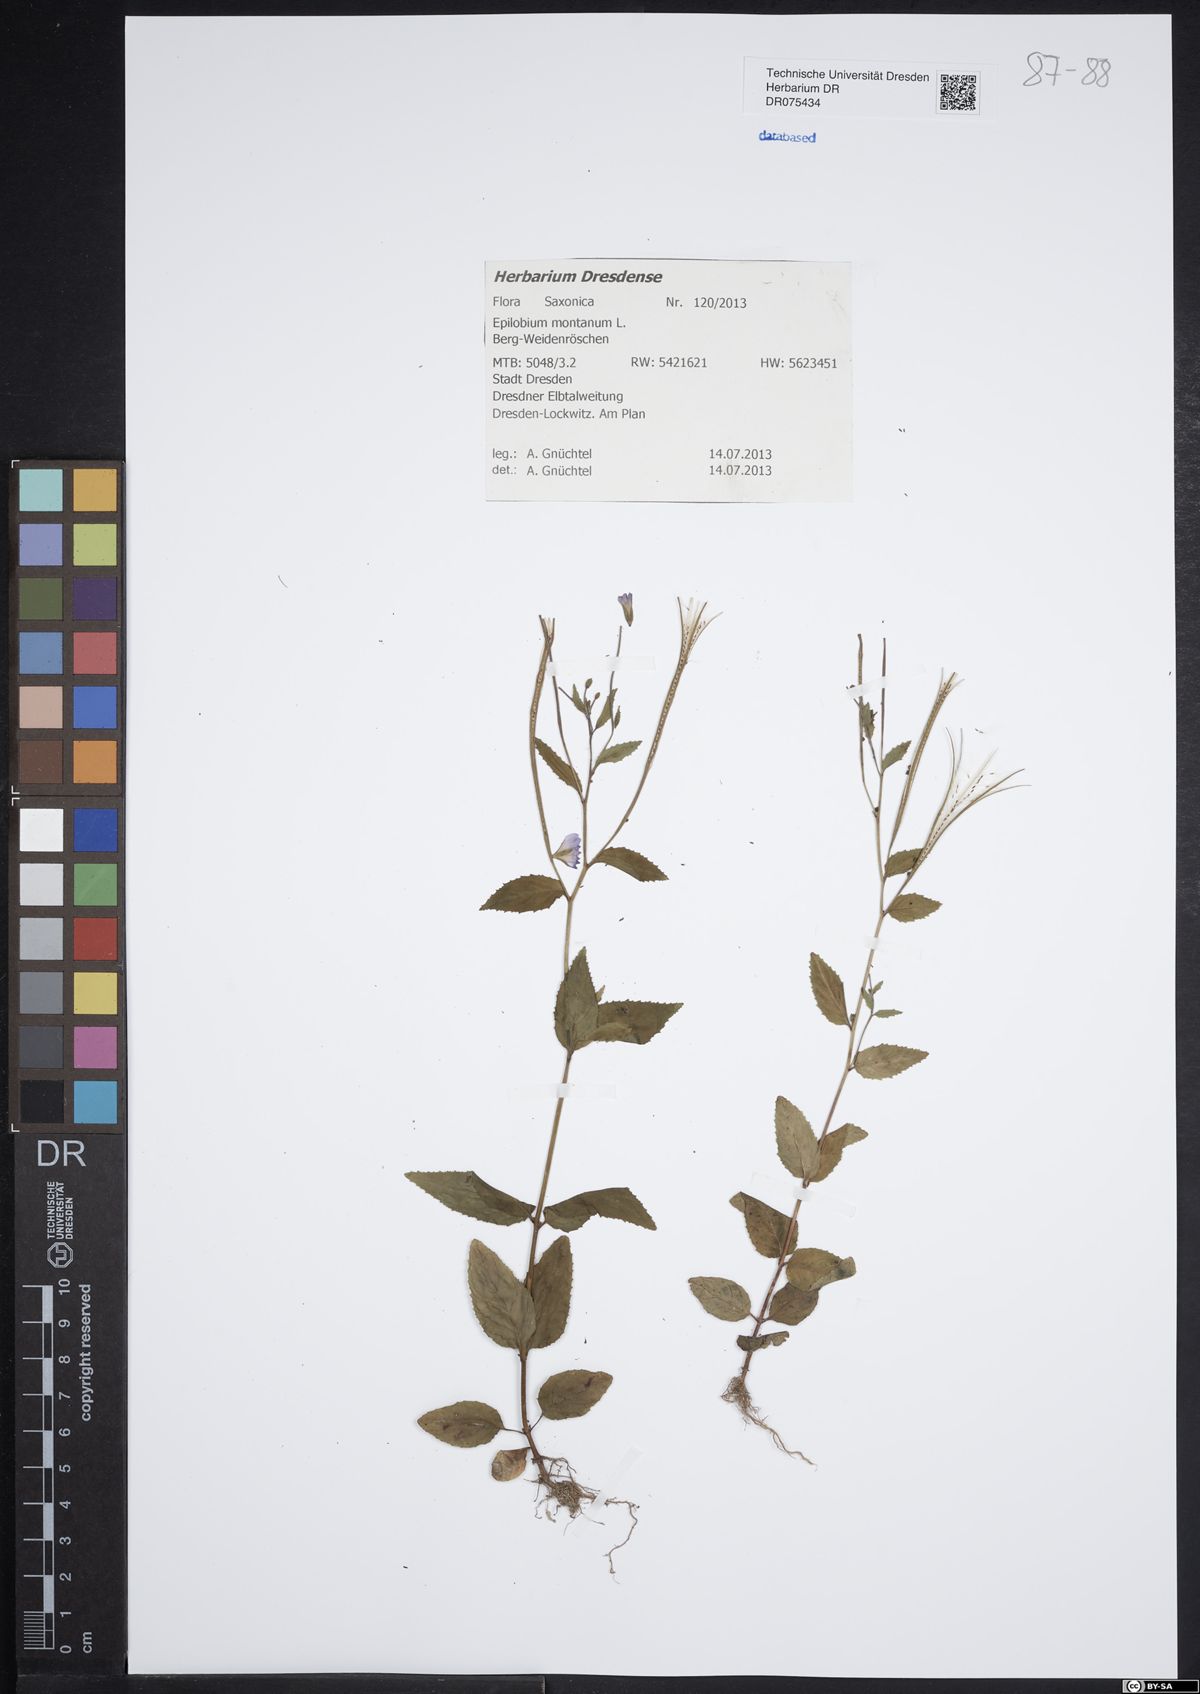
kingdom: Plantae
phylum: Tracheophyta
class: Magnoliopsida
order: Myrtales
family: Onagraceae
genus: Epilobium
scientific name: Epilobium montanum
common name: Broad-leaved willowherb
